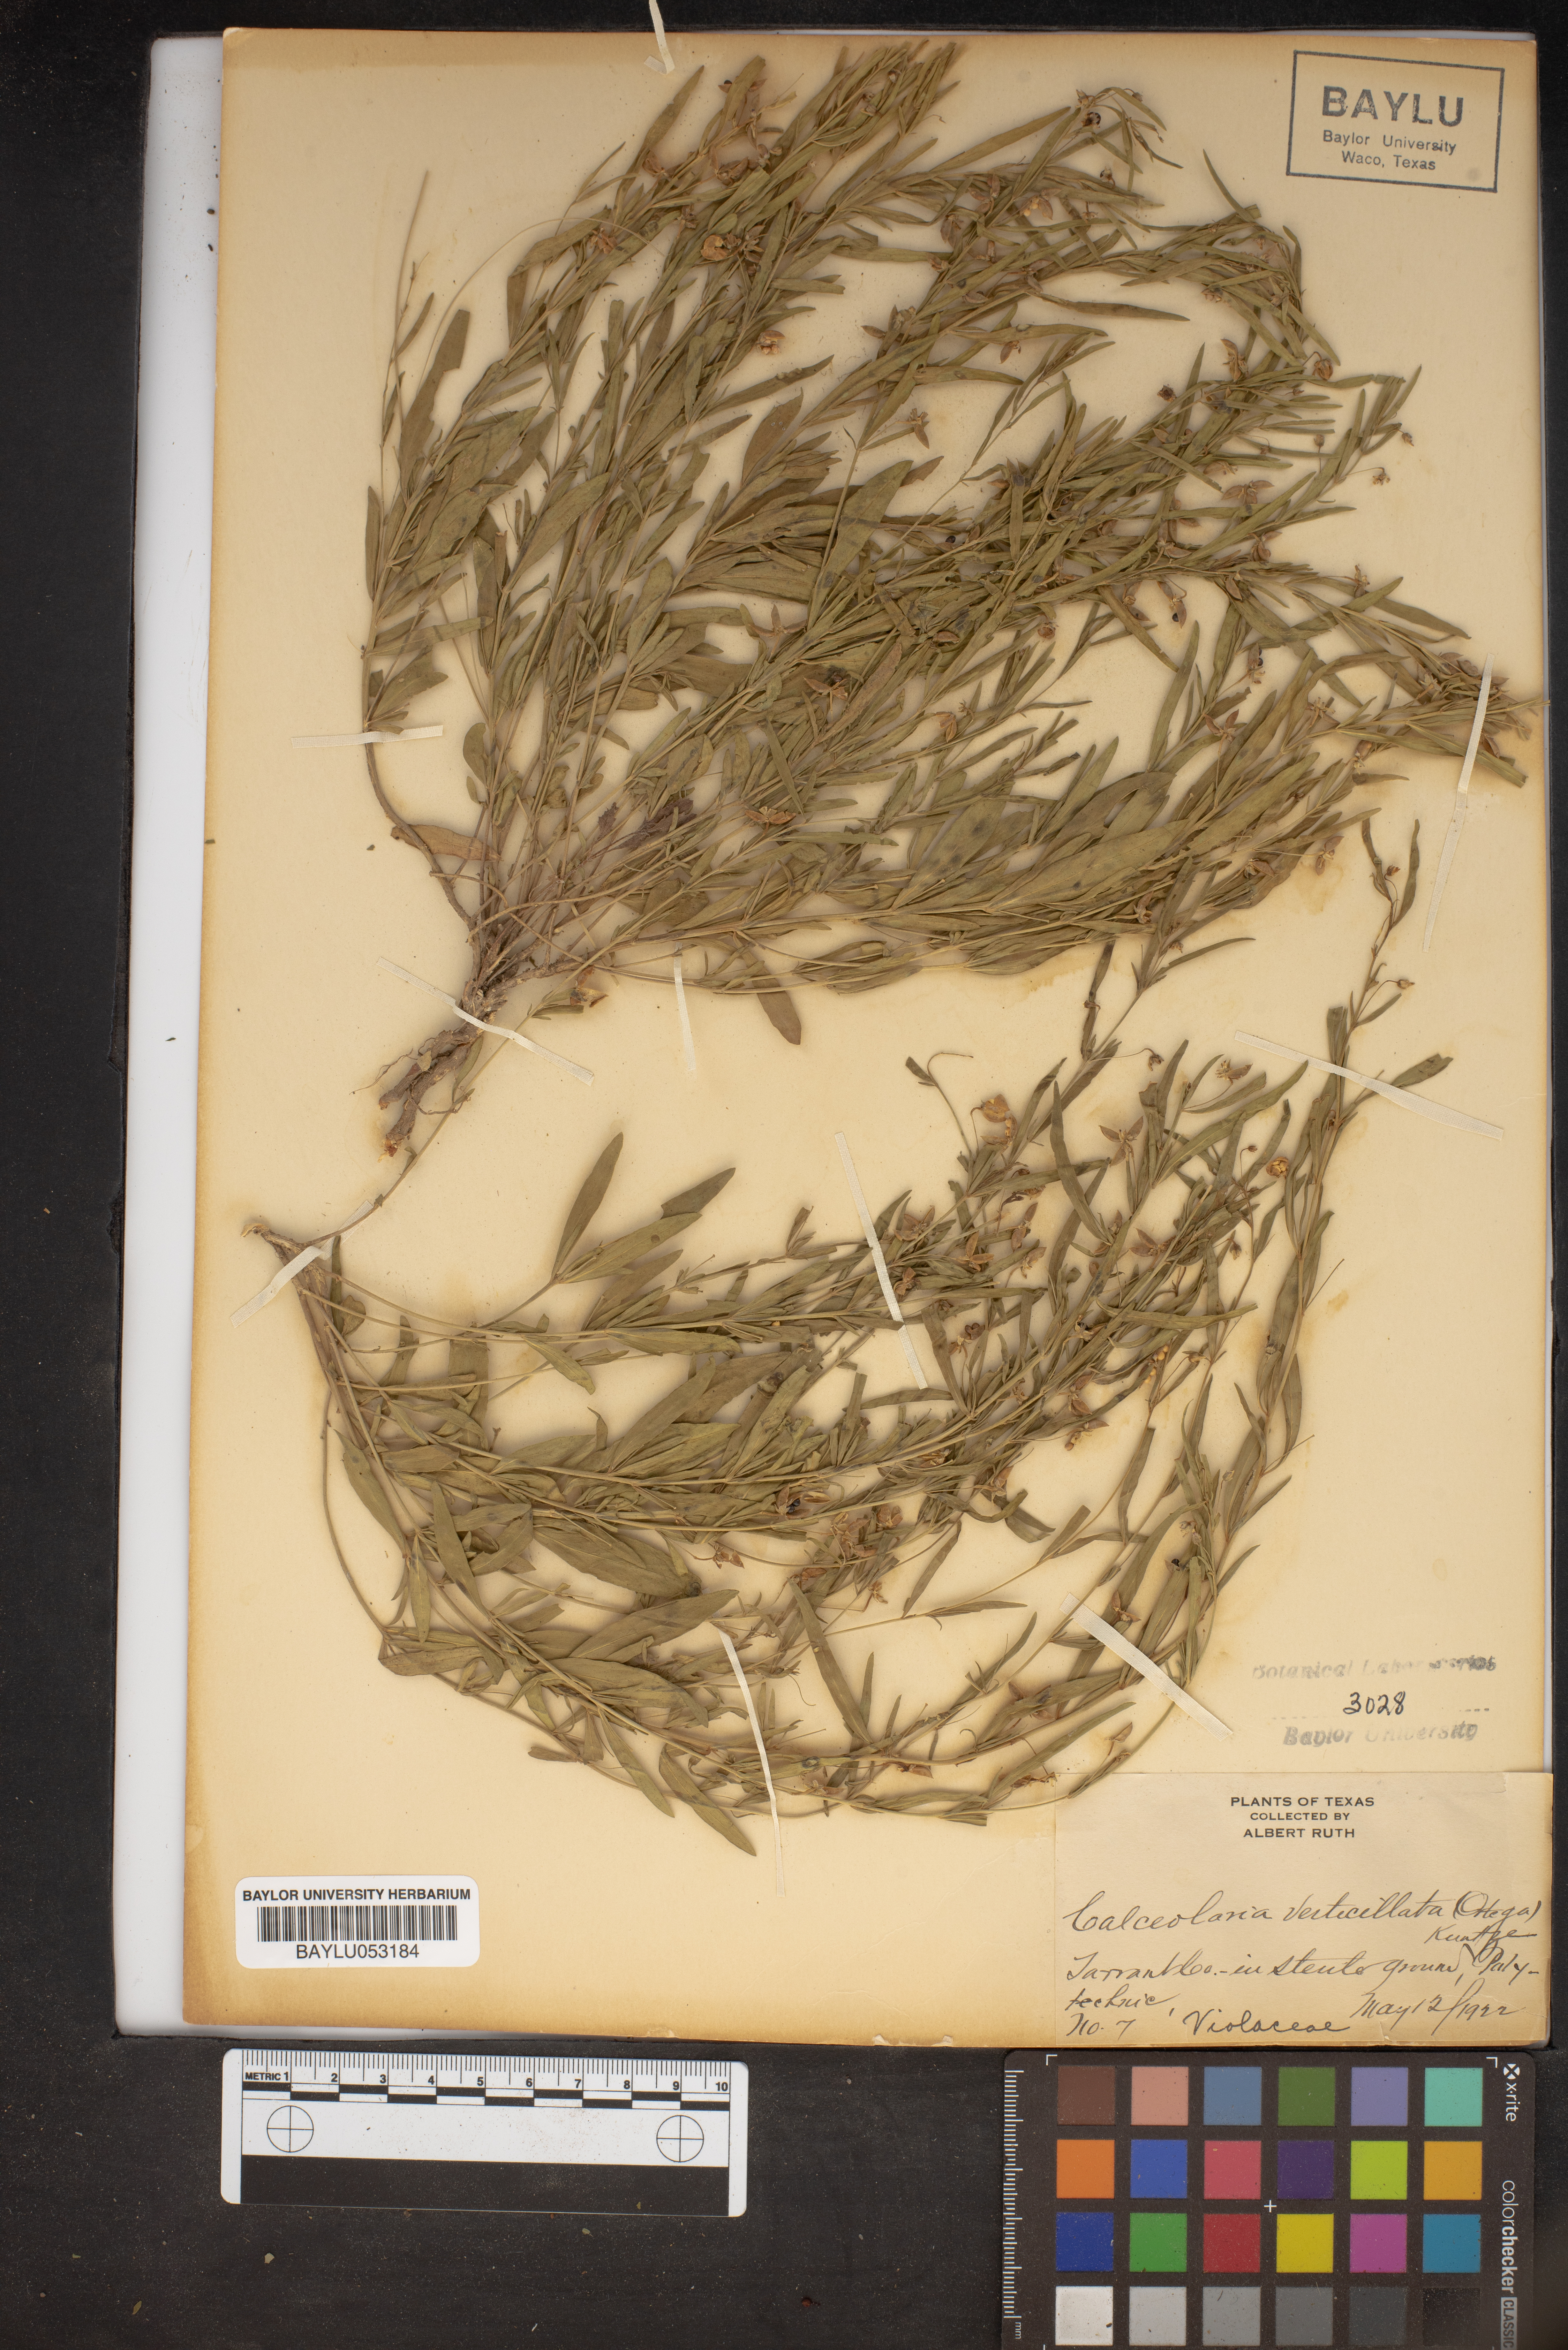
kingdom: Plantae
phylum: Tracheophyta
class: Magnoliopsida
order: Malpighiales
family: Violaceae
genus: Pombalia
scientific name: Pombalia verticillata
